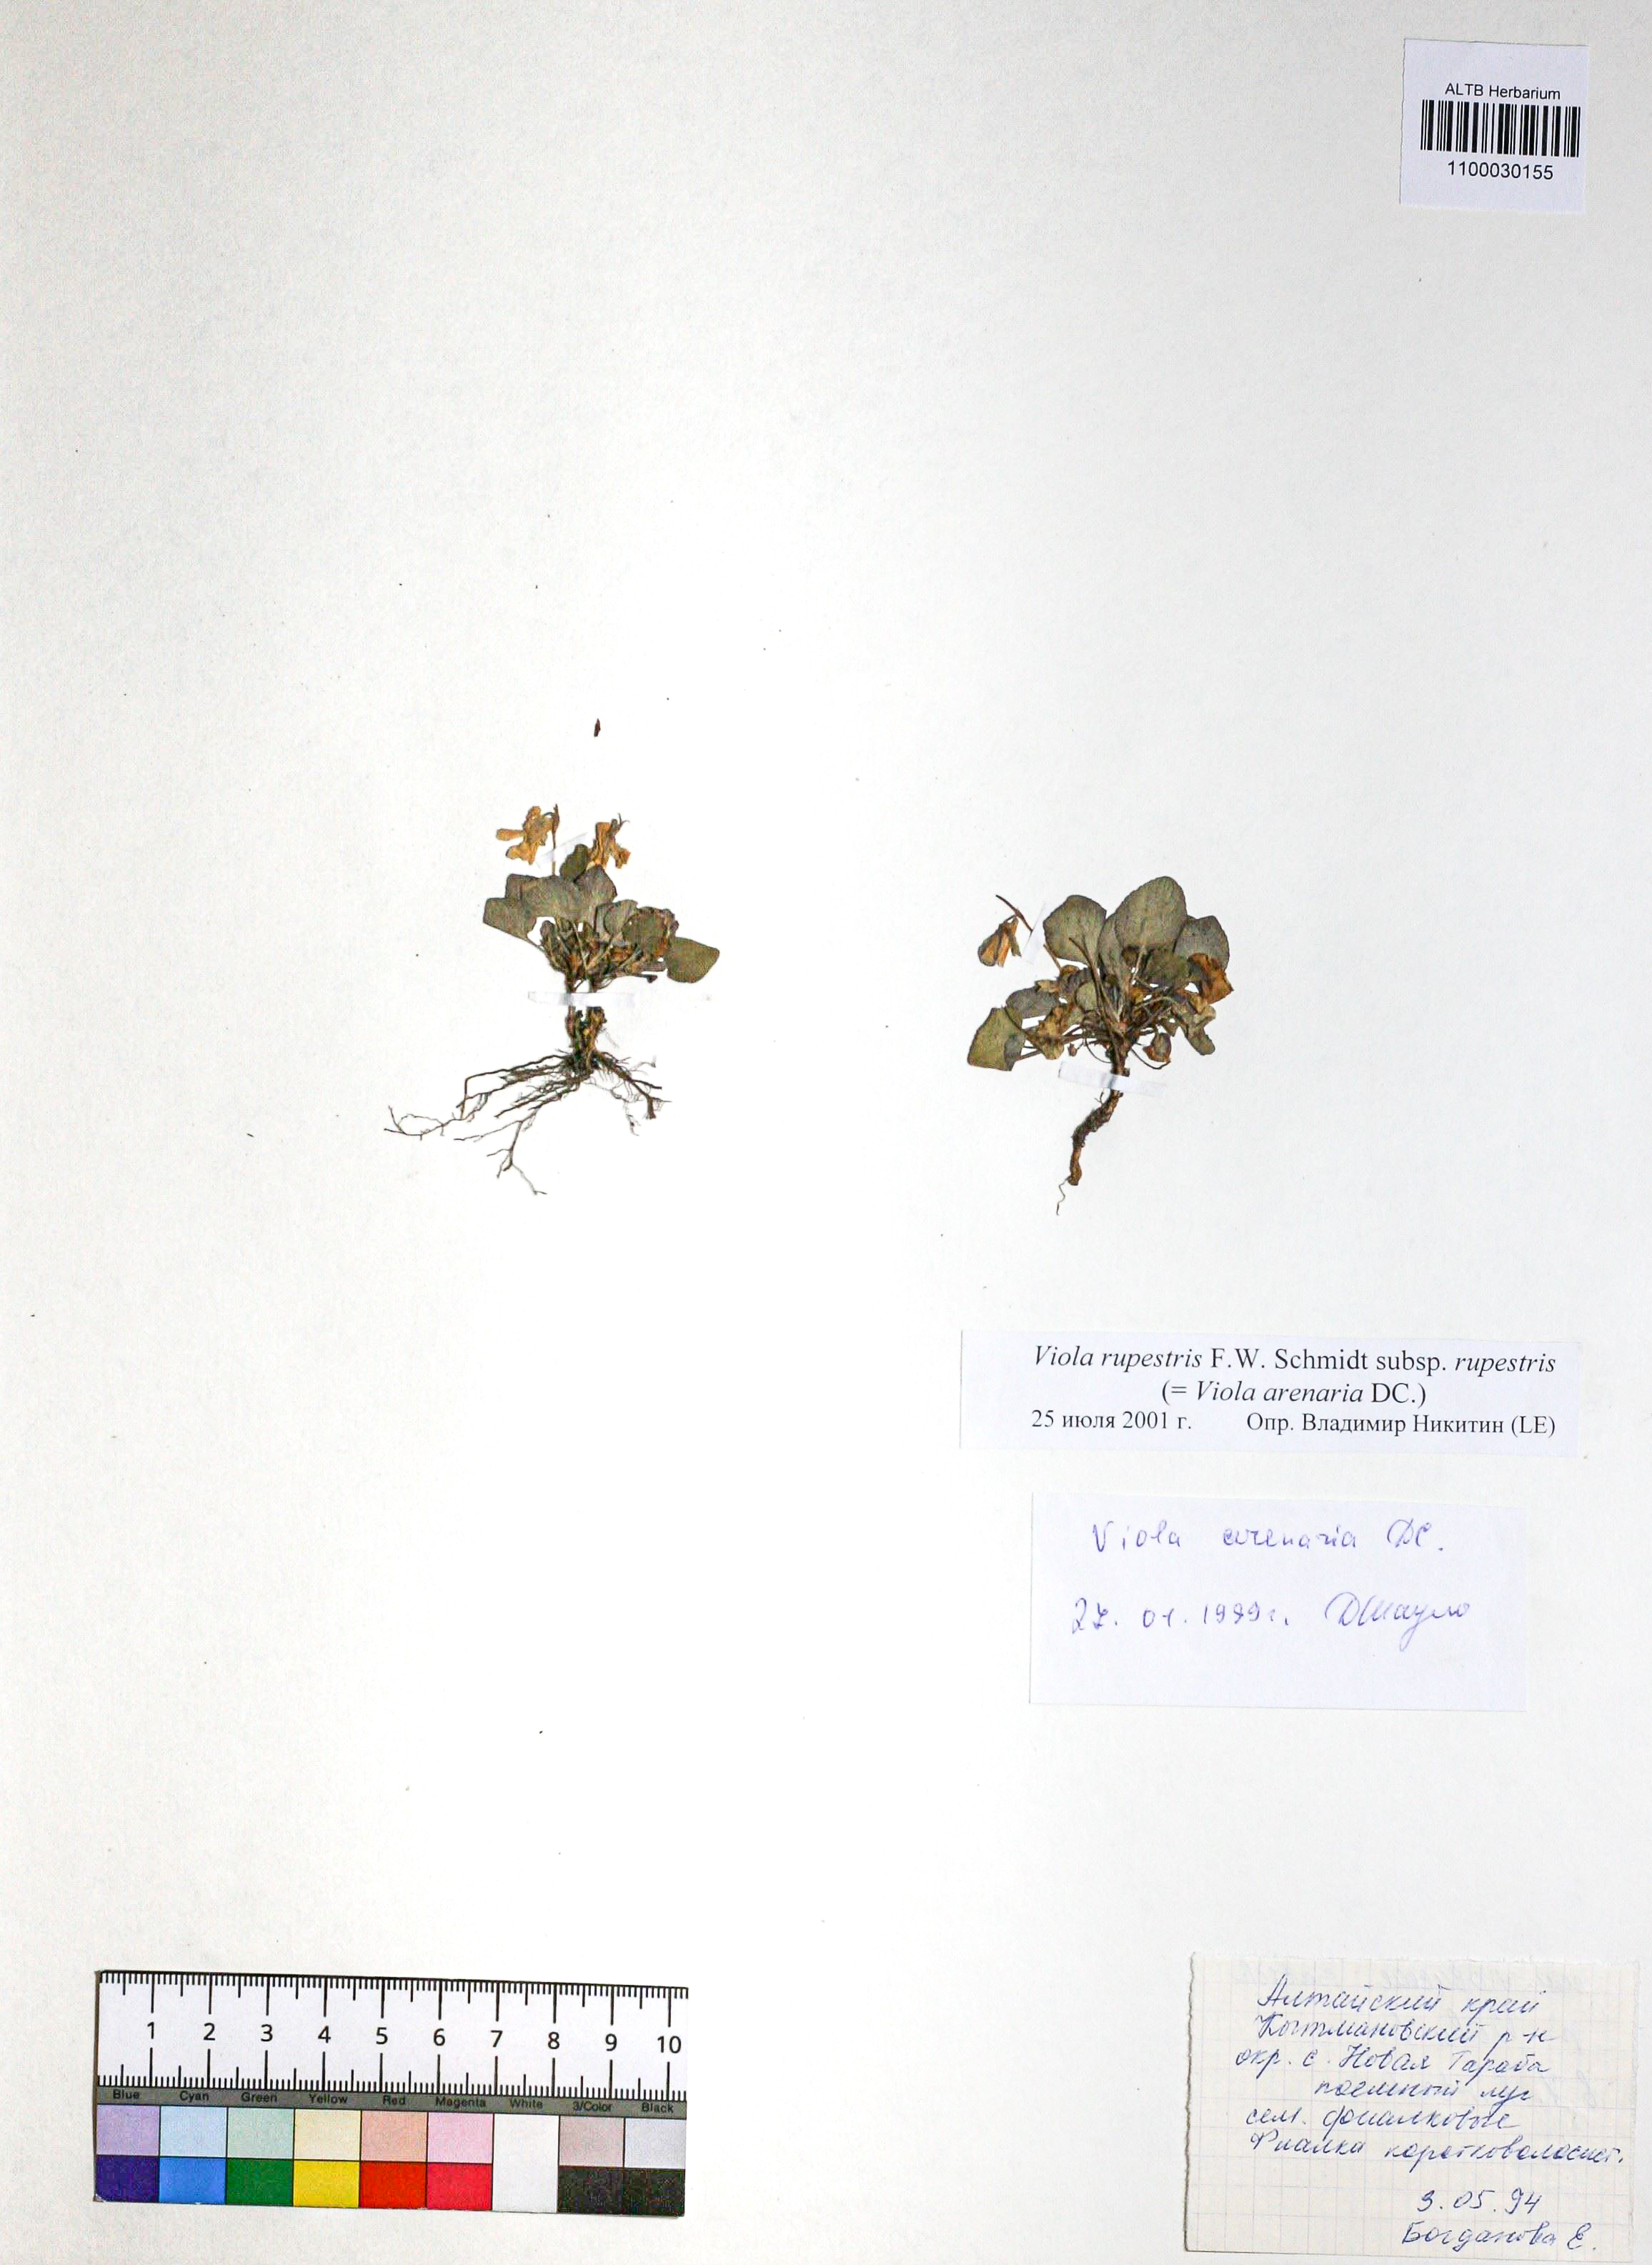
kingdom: Plantae
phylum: Tracheophyta
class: Magnoliopsida
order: Malpighiales
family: Violaceae
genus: Viola
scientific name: Viola rupestris
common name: Teesdale violet
